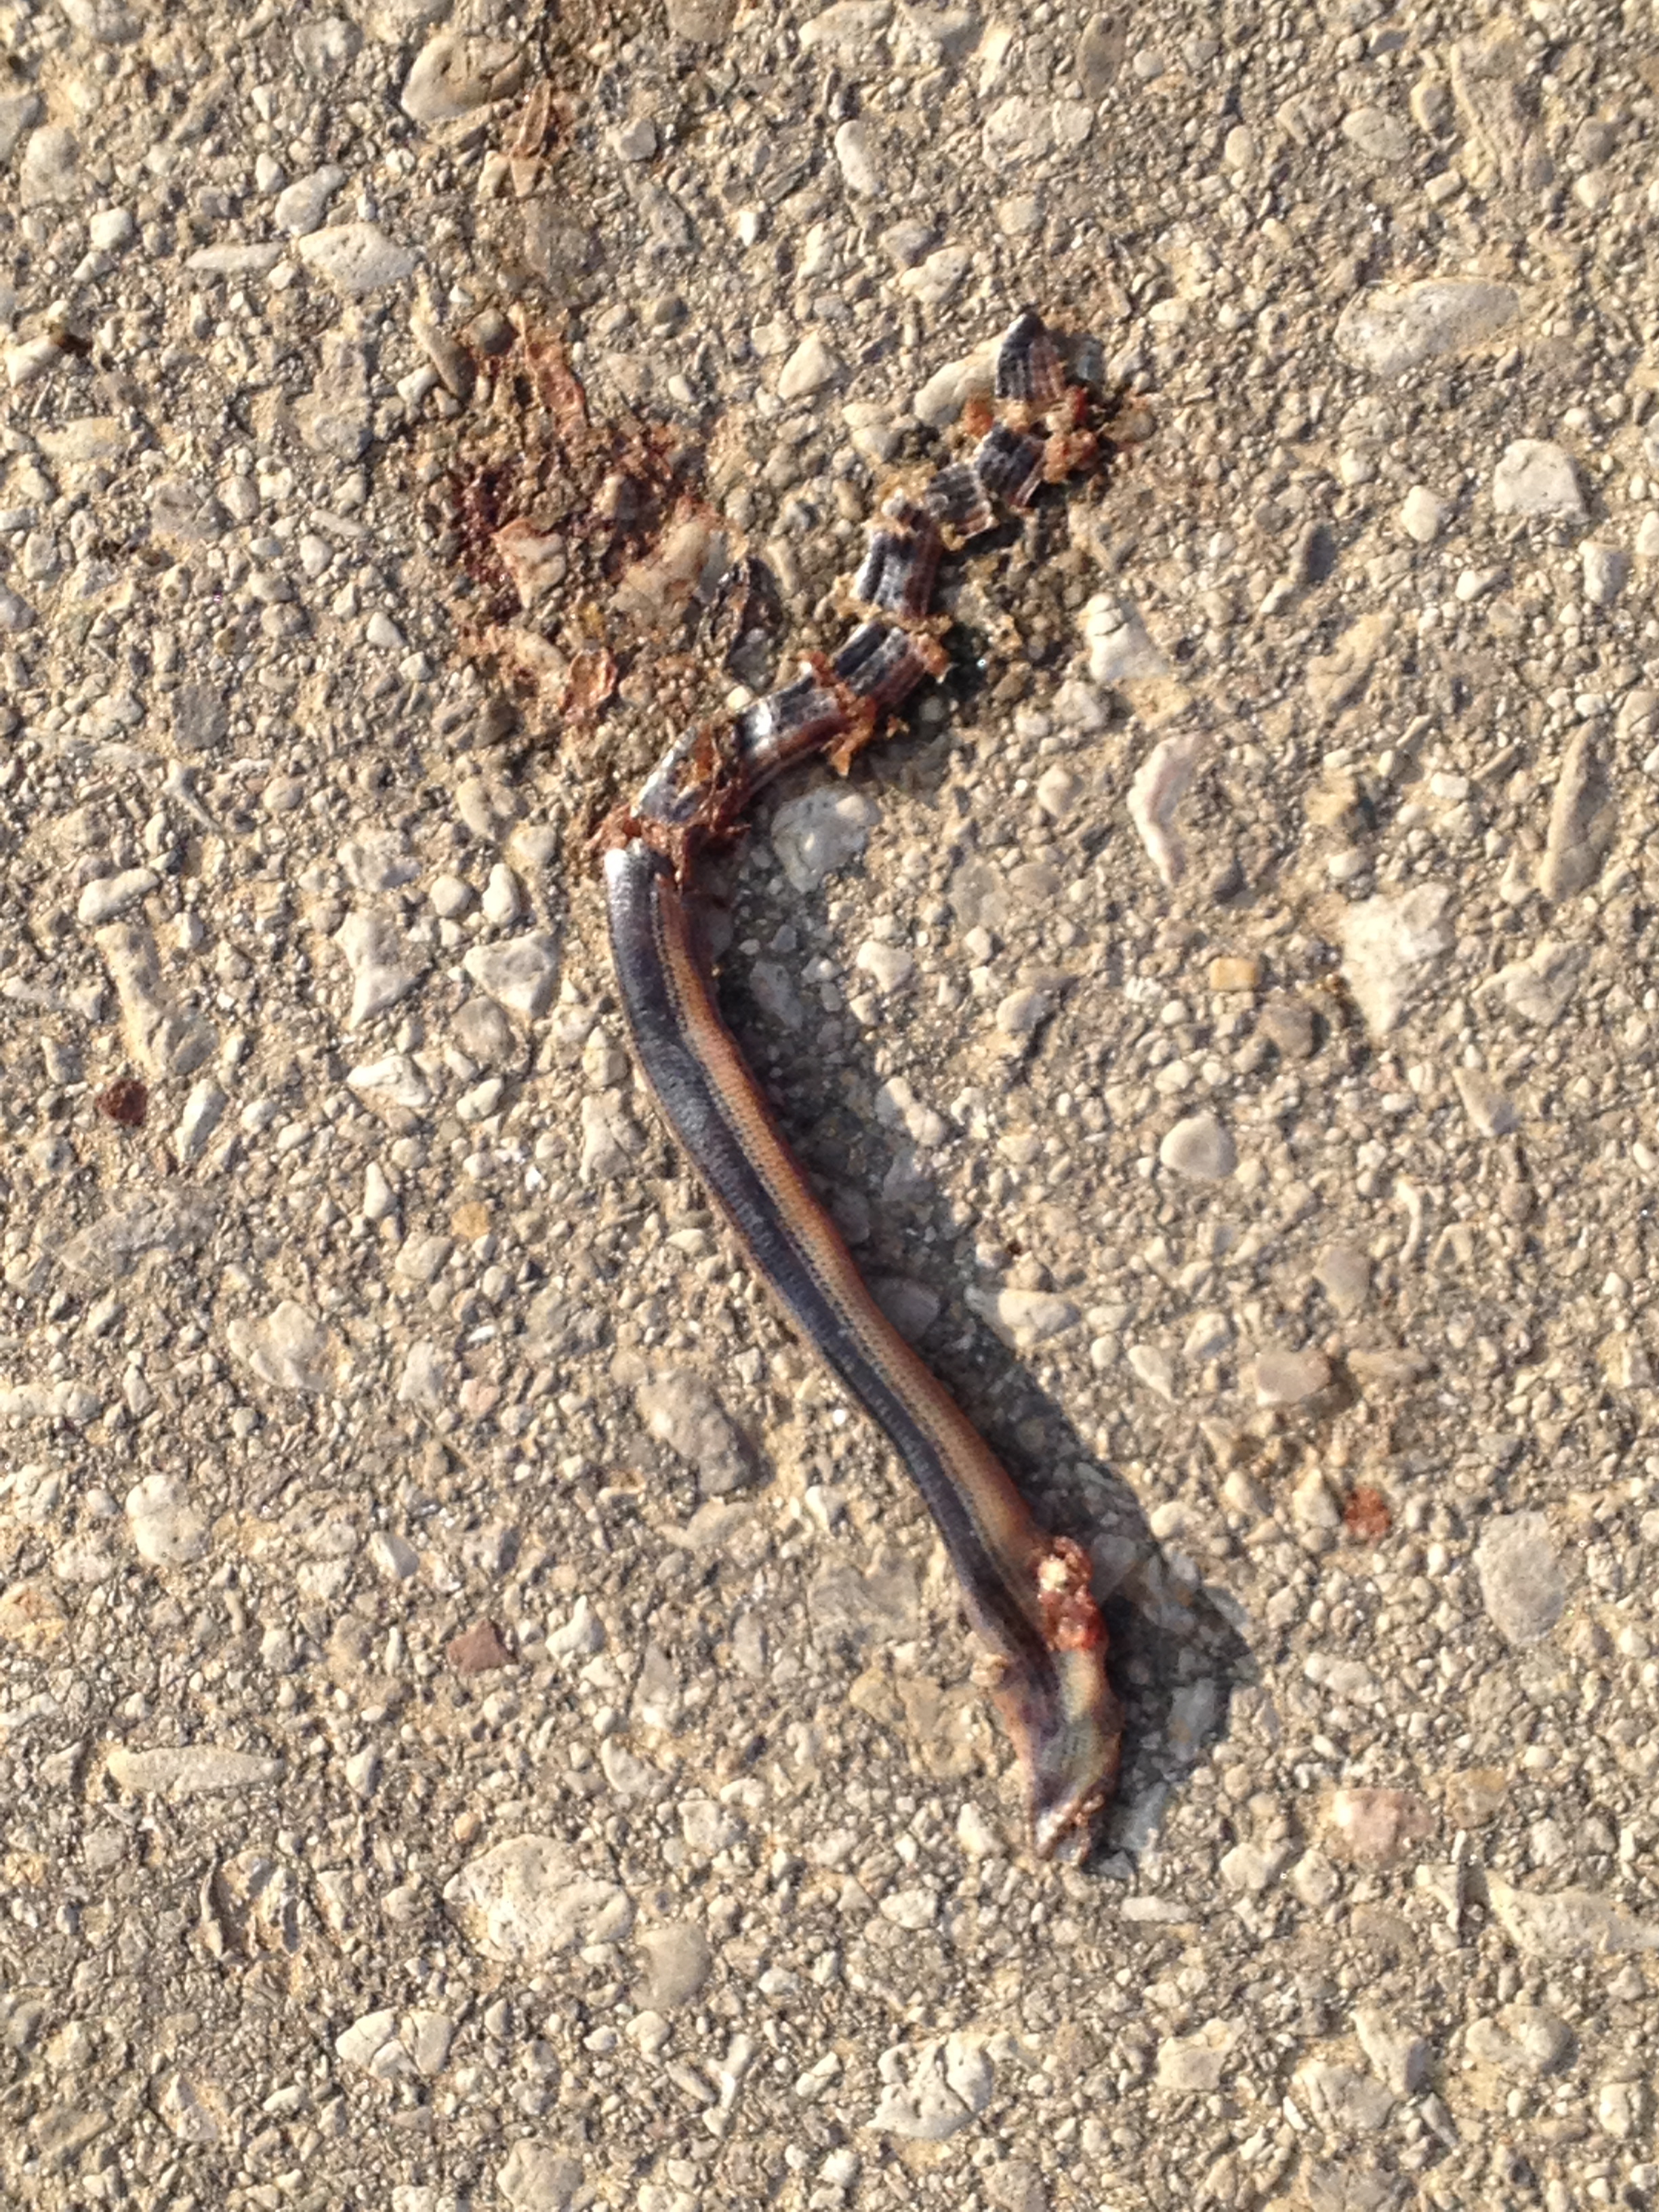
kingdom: Animalia
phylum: Chordata
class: Squamata
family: Anguidae
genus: Anguis
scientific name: Anguis fragilis
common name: Slow worm
